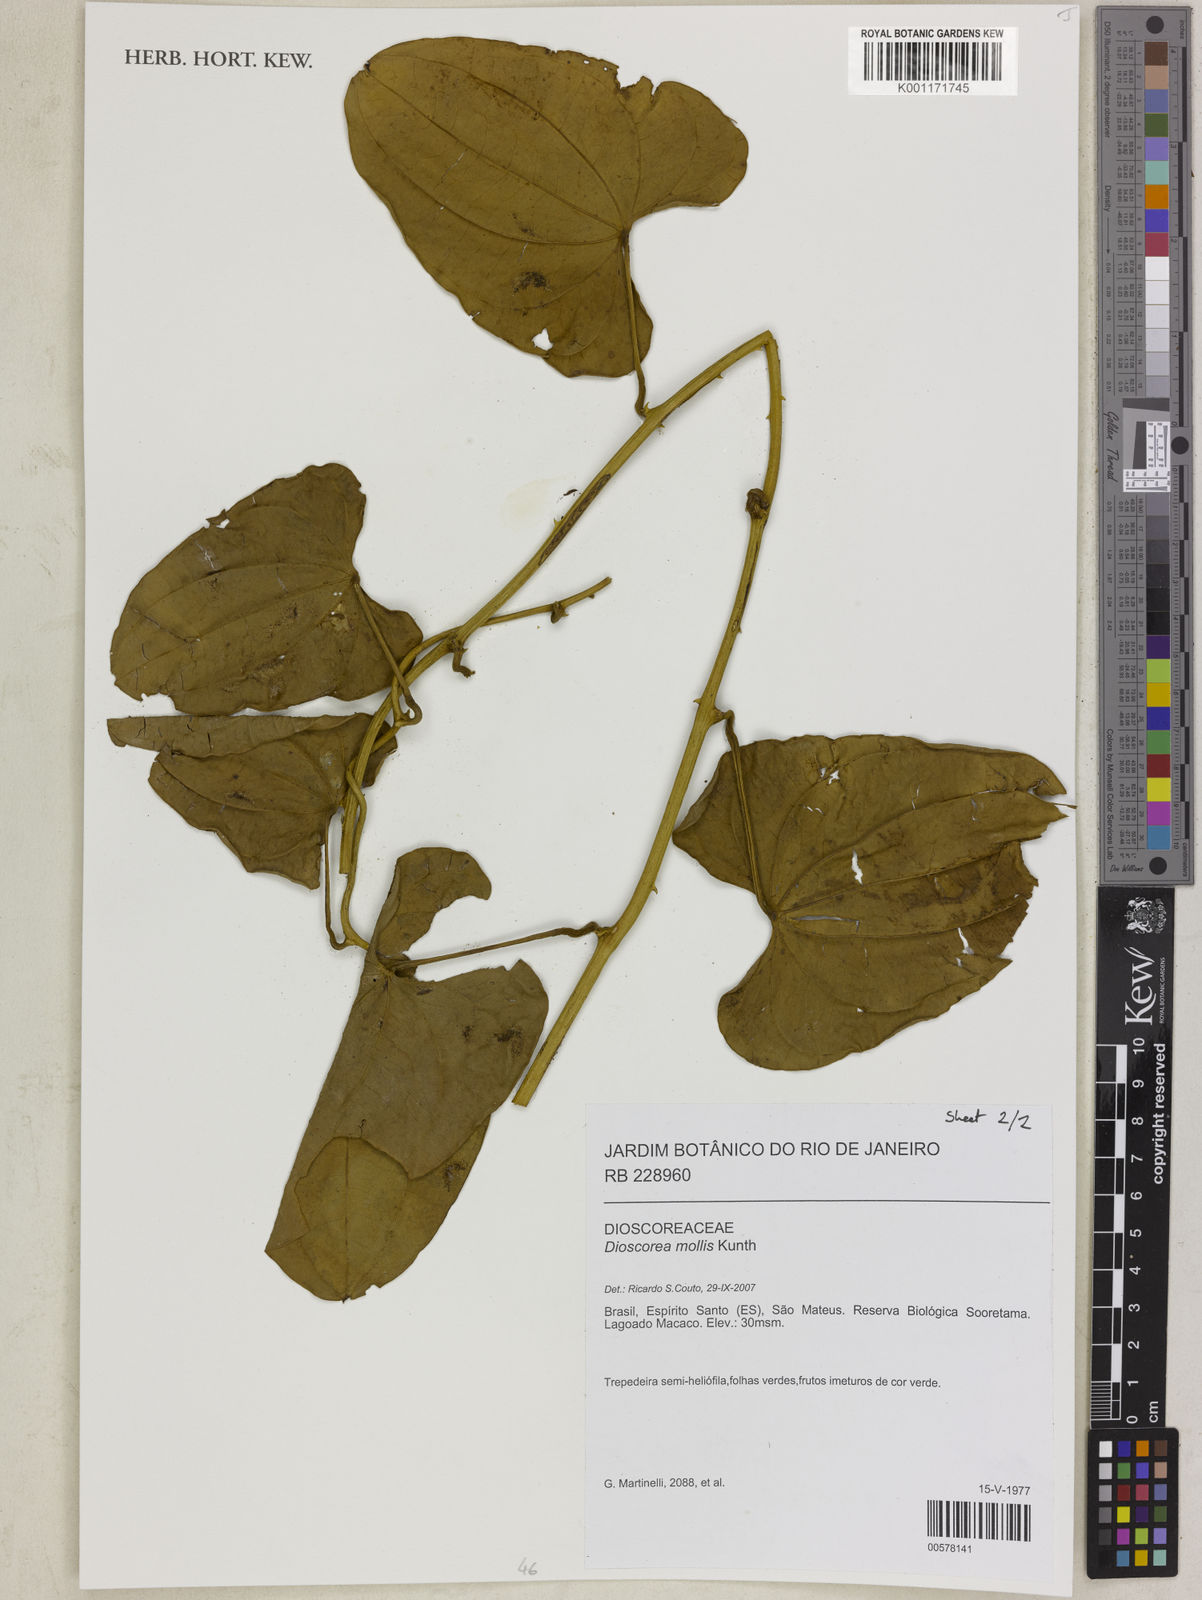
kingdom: Plantae
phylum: Tracheophyta
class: Liliopsida
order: Dioscoreales
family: Dioscoreaceae
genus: Dioscorea
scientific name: Dioscorea mollis
